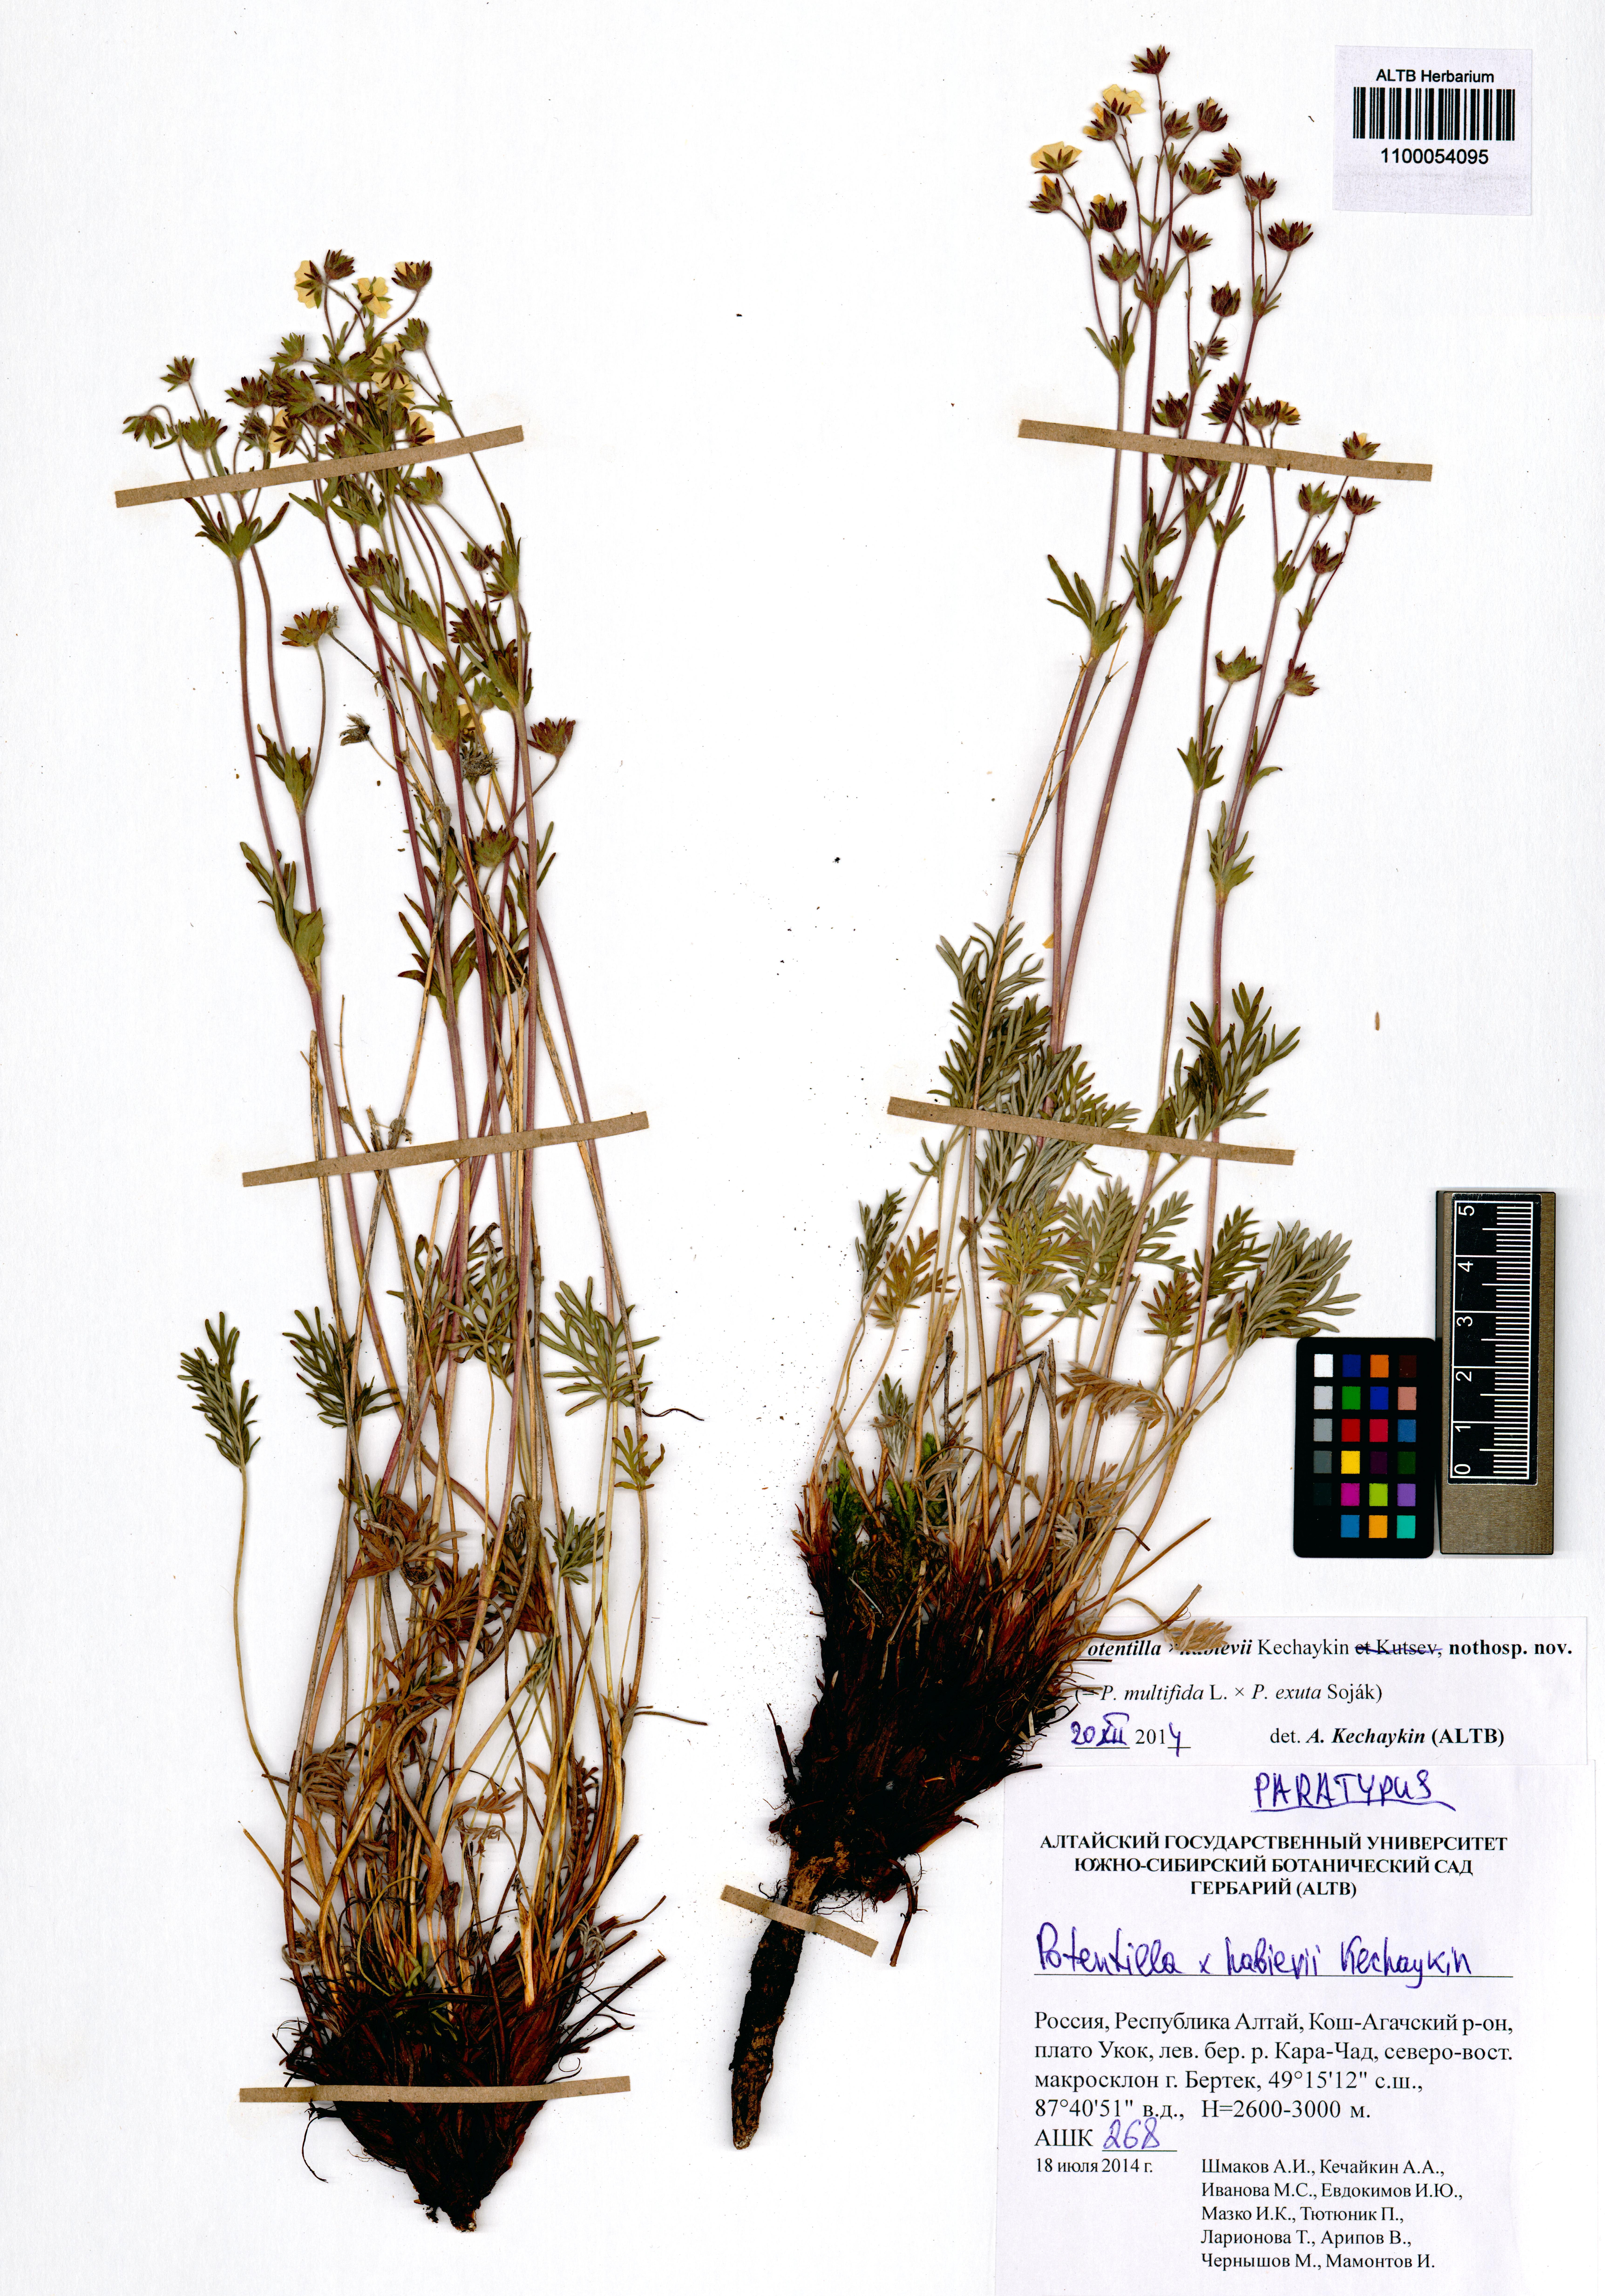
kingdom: Plantae
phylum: Tracheophyta
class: Magnoliopsida
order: Rosales
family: Rosaceae
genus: Potentilla
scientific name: Potentilla habievii
